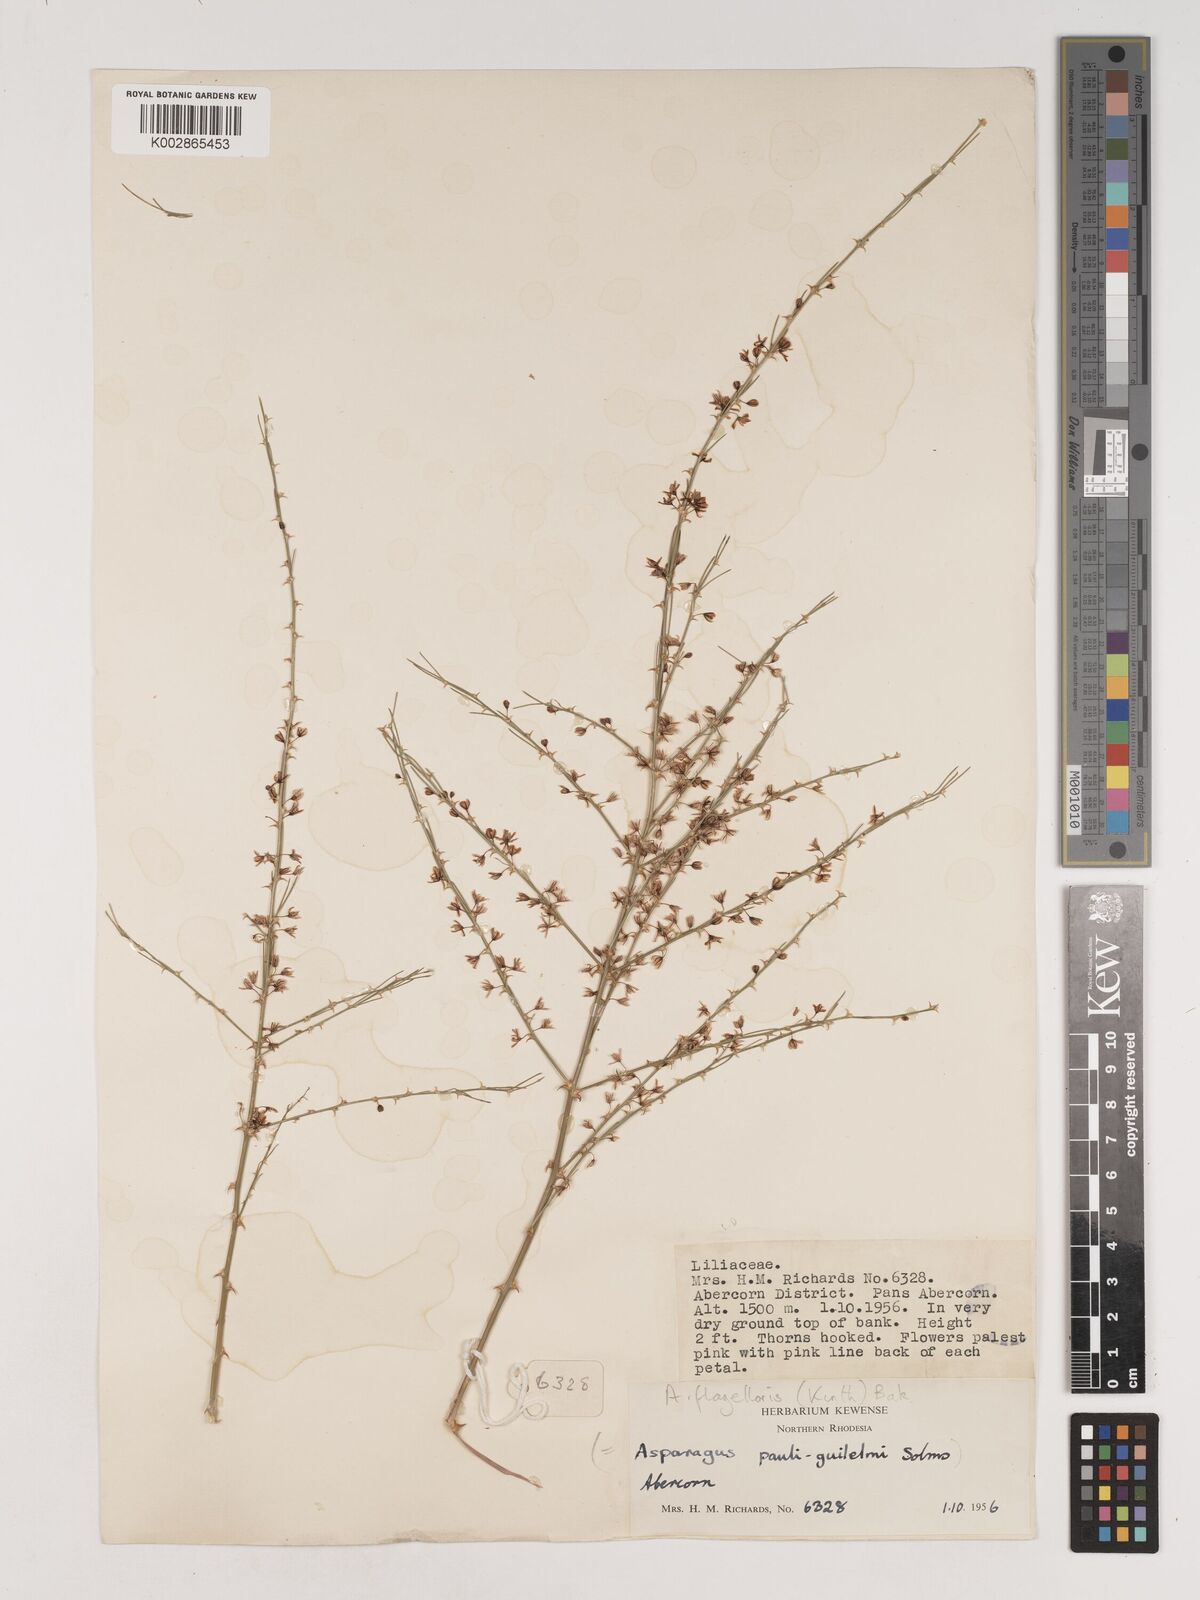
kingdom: Plantae
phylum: Tracheophyta
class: Liliopsida
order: Asparagales
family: Asparagaceae
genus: Asparagus
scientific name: Asparagus flagellaris
